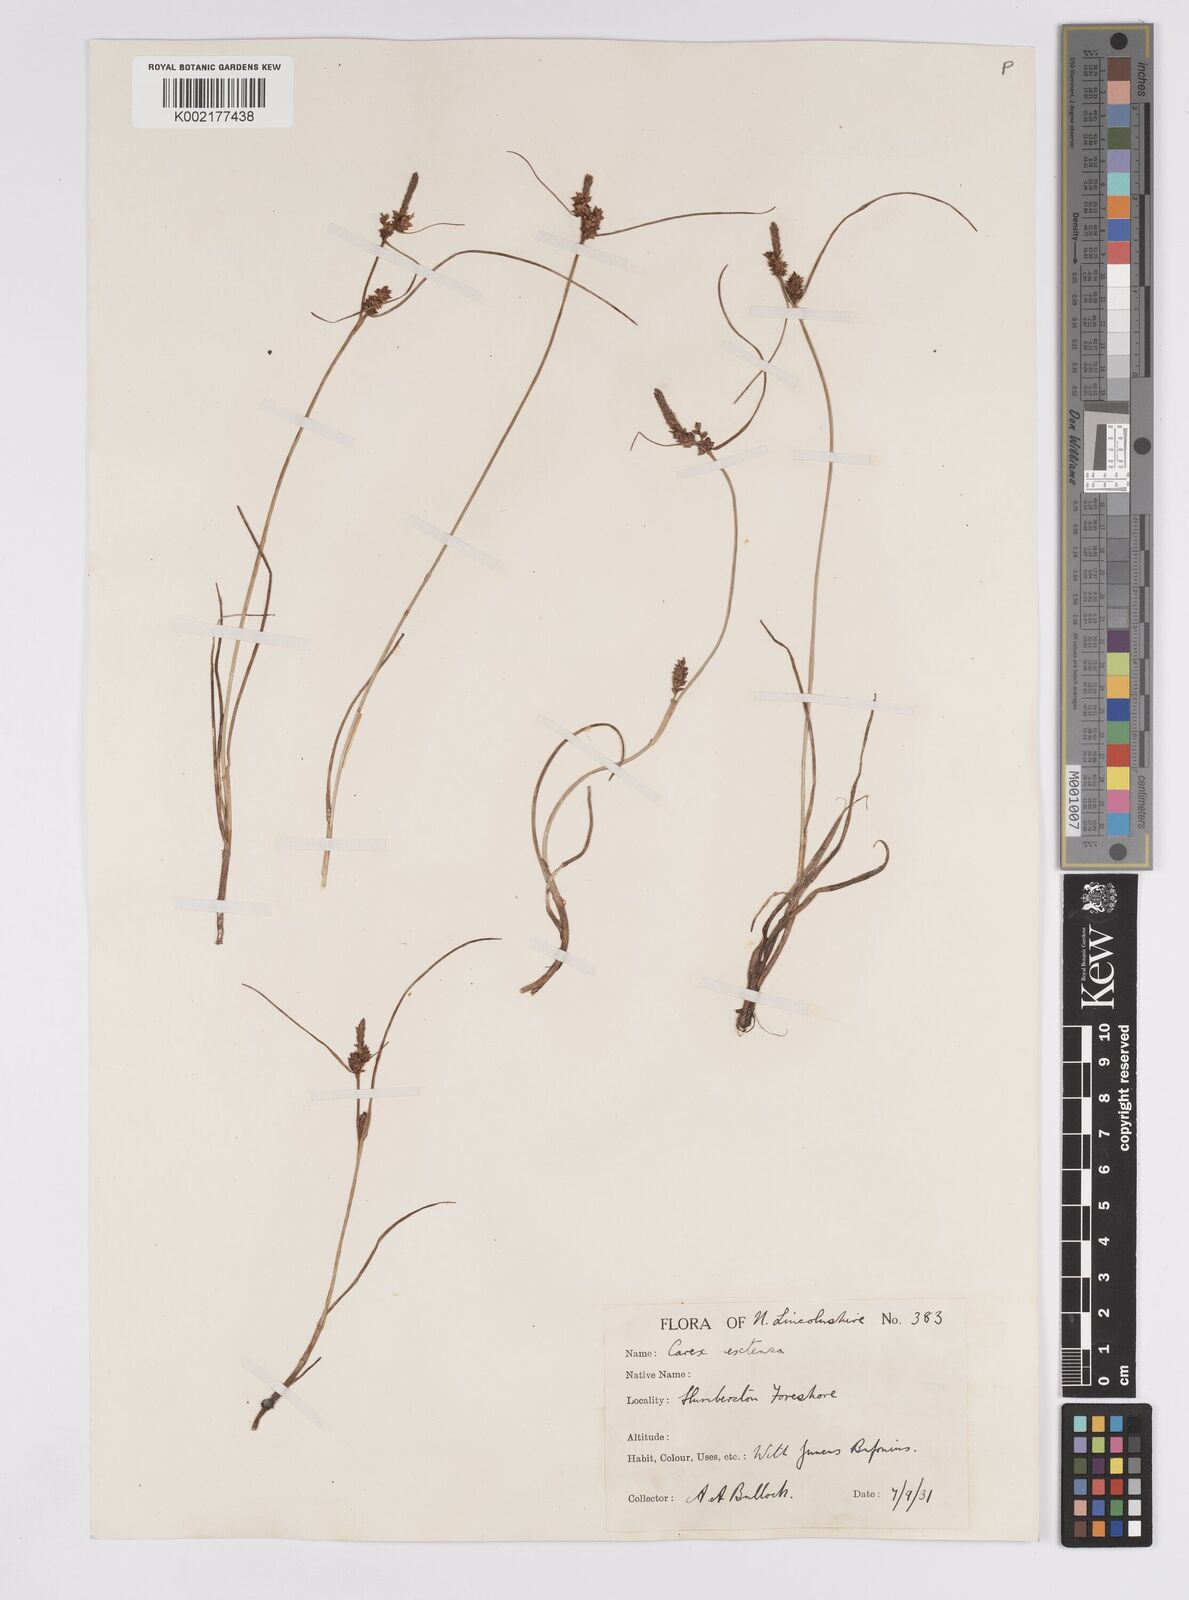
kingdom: Plantae
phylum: Tracheophyta
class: Liliopsida
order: Poales
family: Cyperaceae
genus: Carex
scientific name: Carex extensa
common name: Long-bracted sedge
